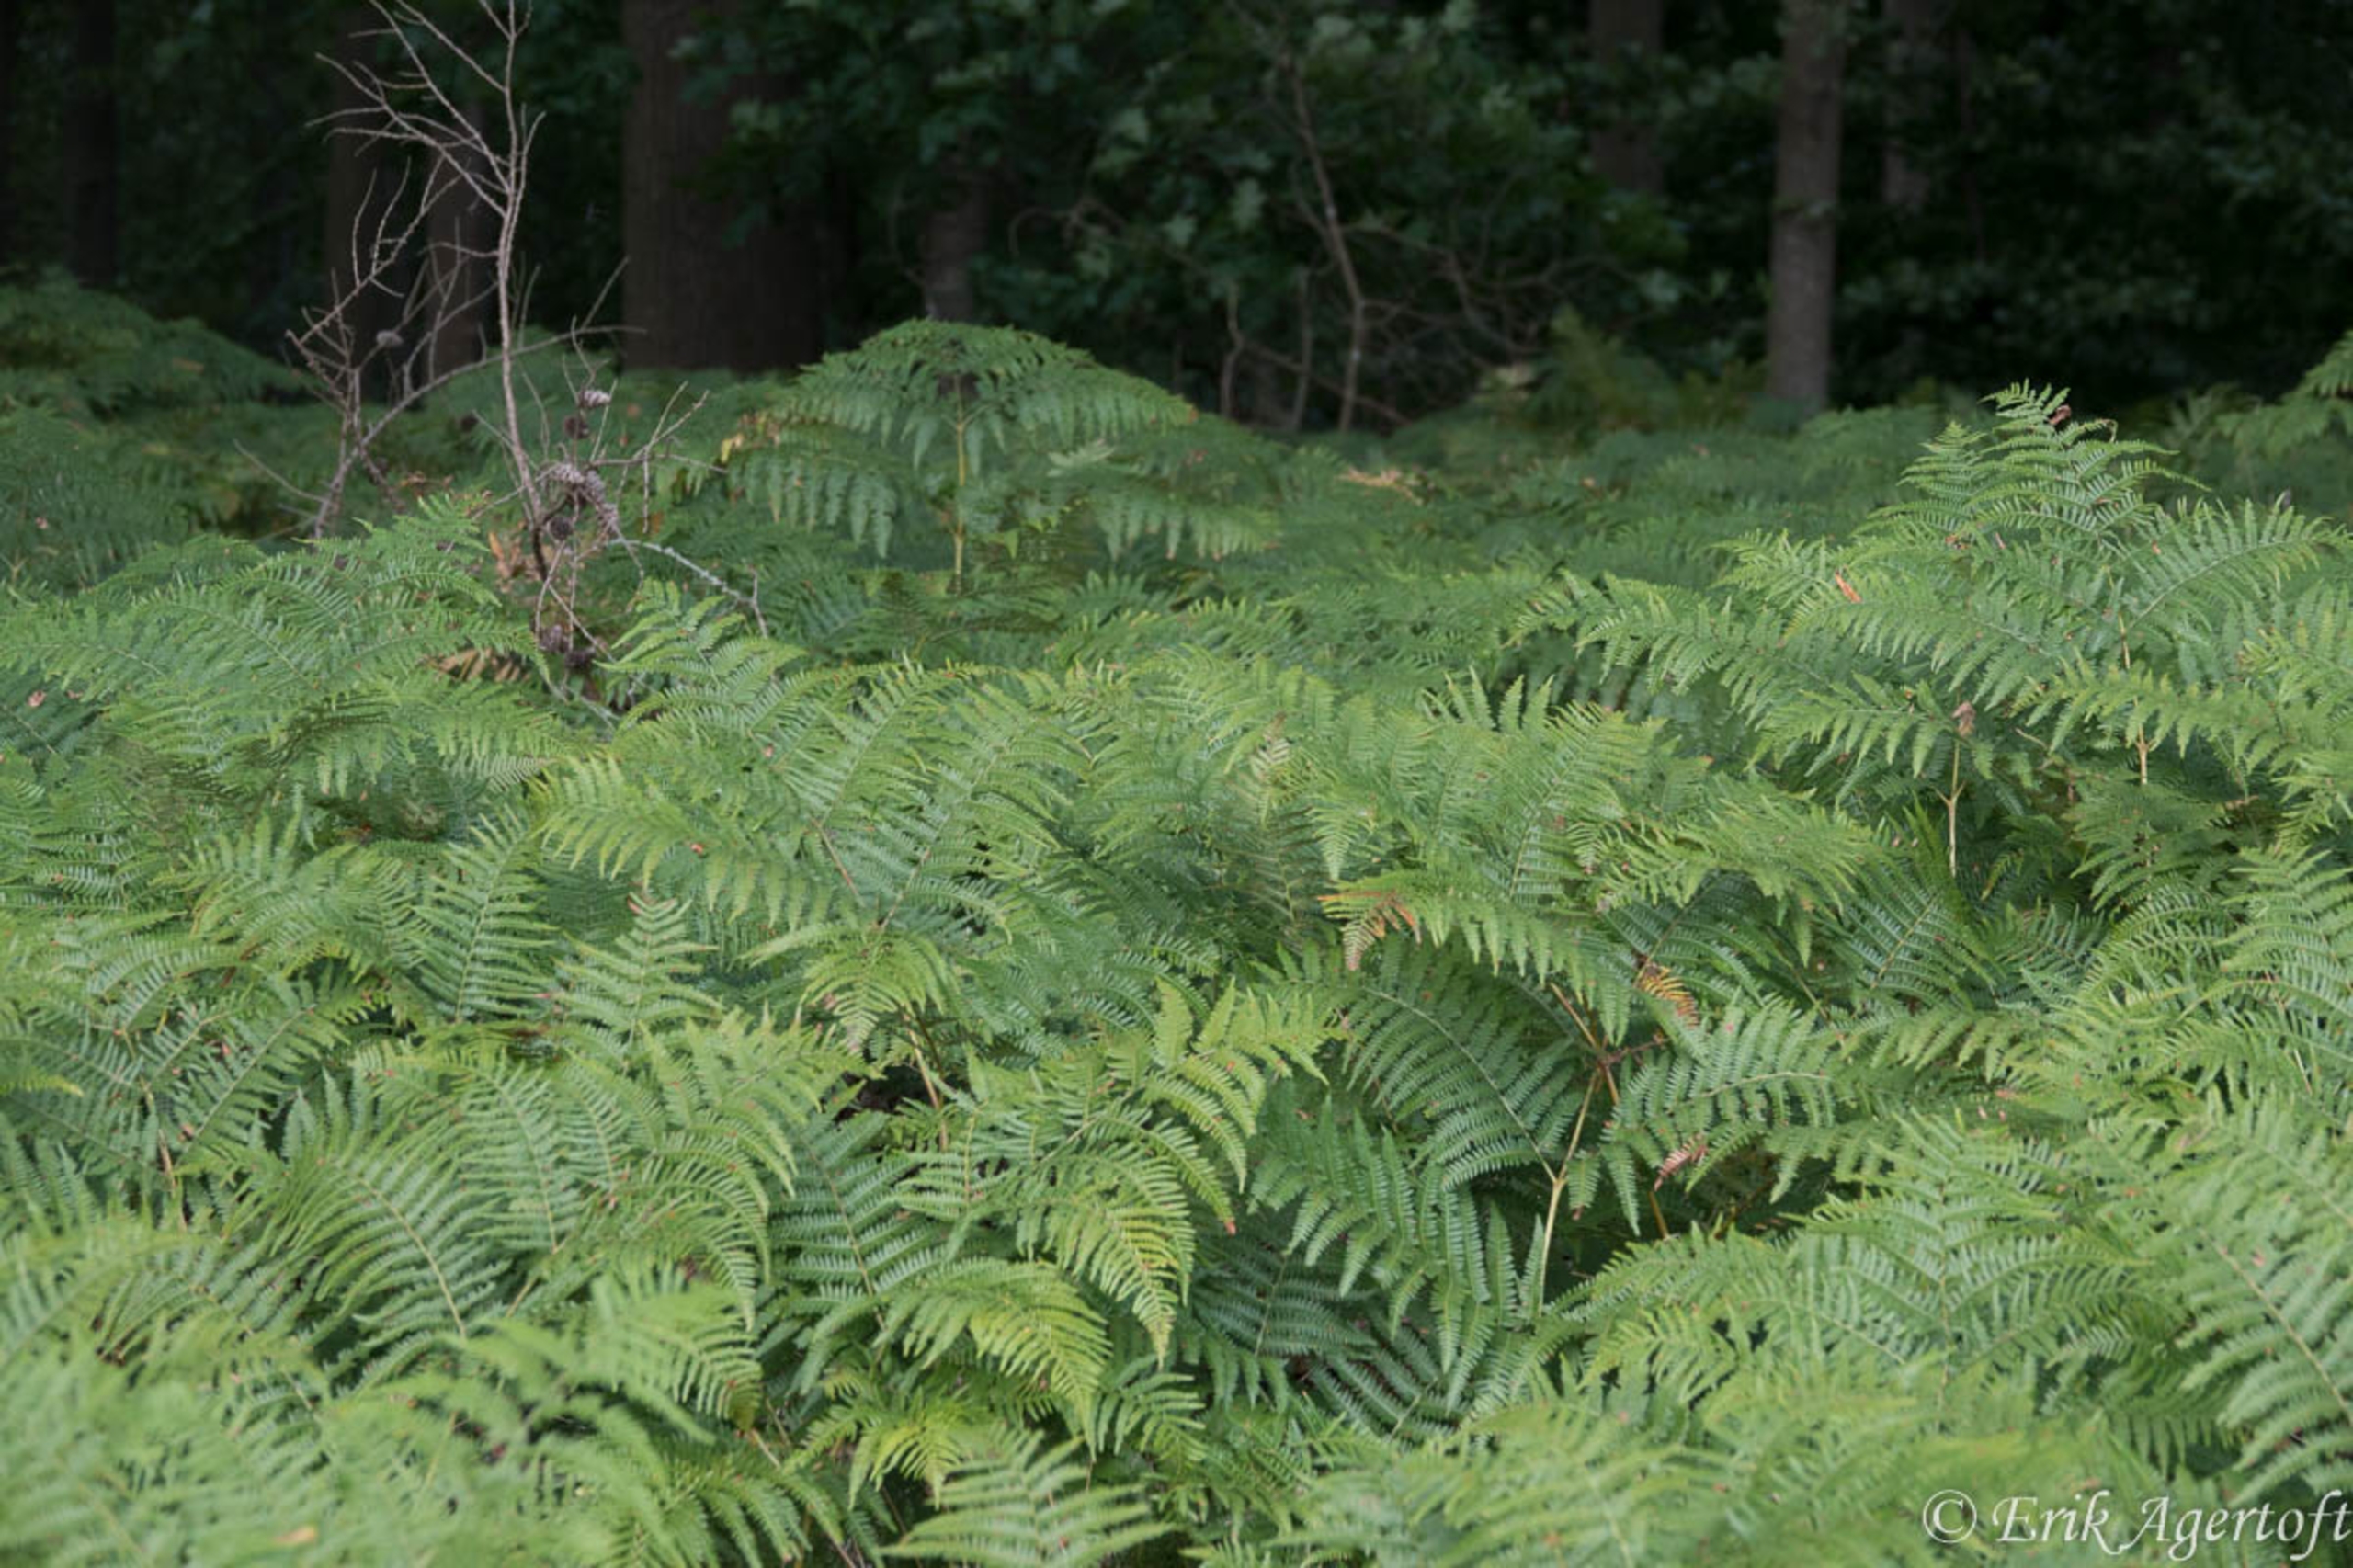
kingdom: Plantae
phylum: Tracheophyta
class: Polypodiopsida
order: Polypodiales
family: Dennstaedtiaceae
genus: Pteridium
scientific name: Pteridium aquilinum
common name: Ørnebregne
